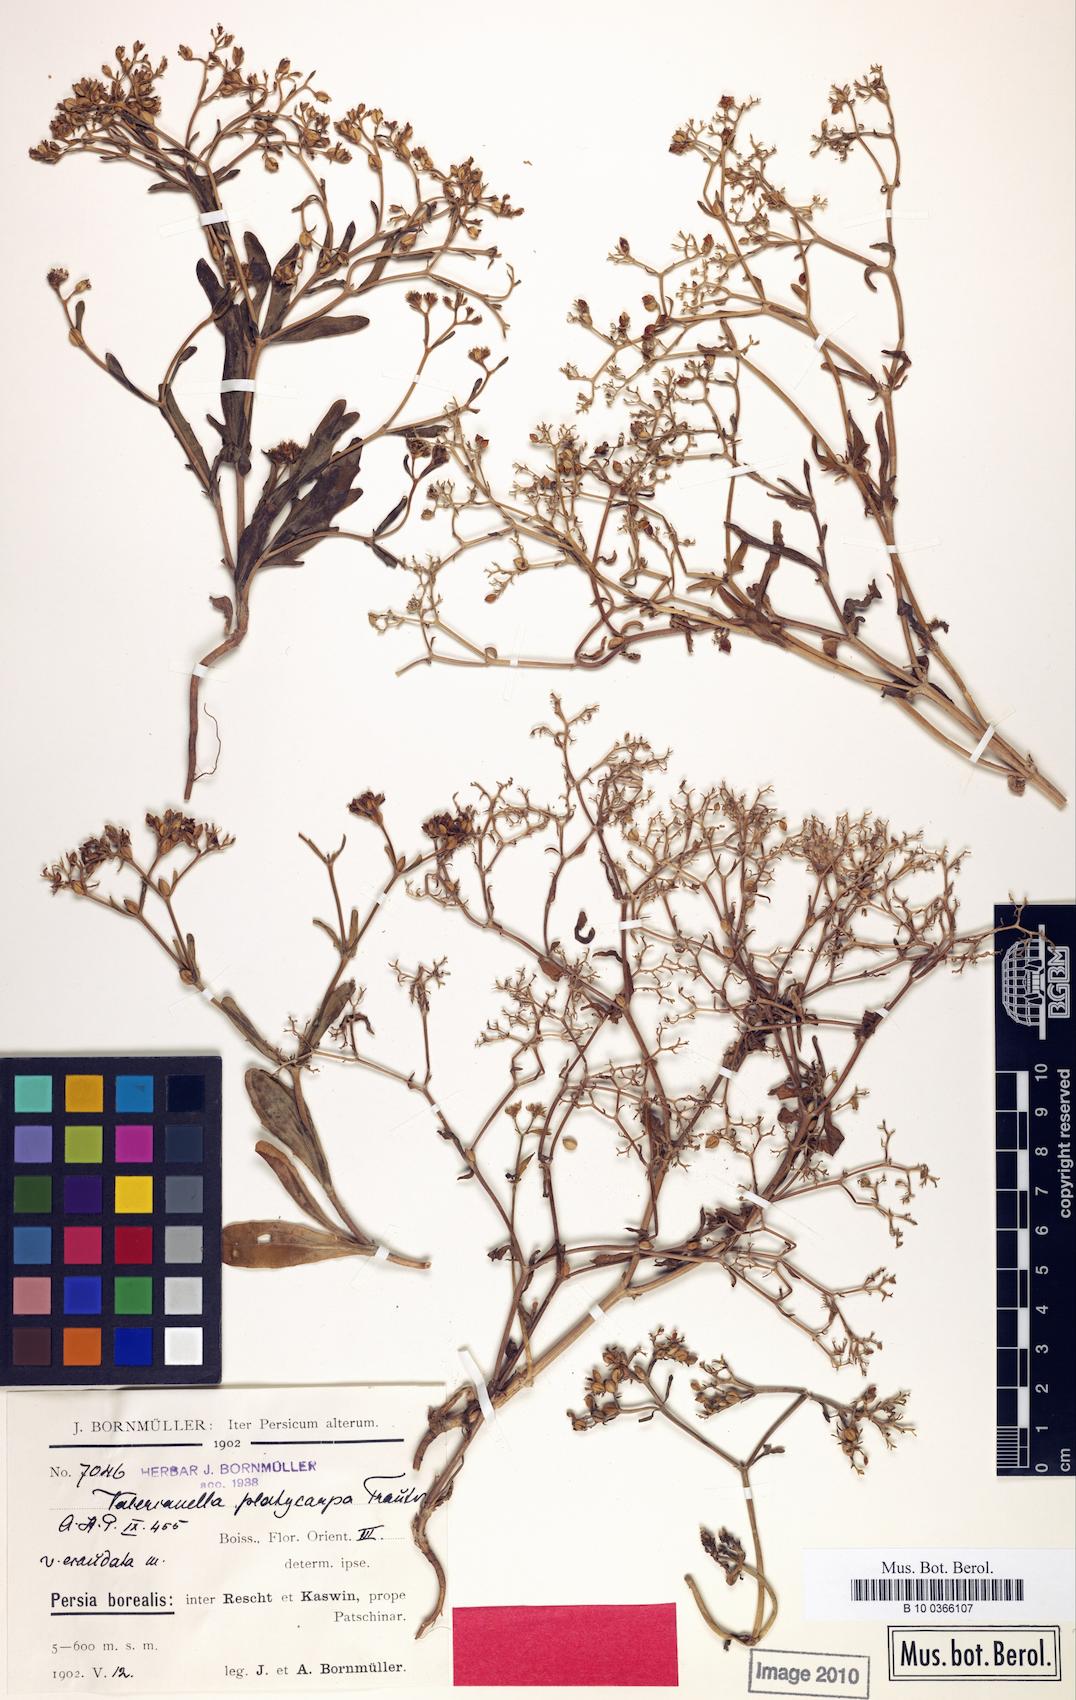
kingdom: Plantae
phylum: Tracheophyta
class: Magnoliopsida
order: Dipsacales
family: Caprifoliaceae
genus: Valerianella
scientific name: Valerianella platycarpa
